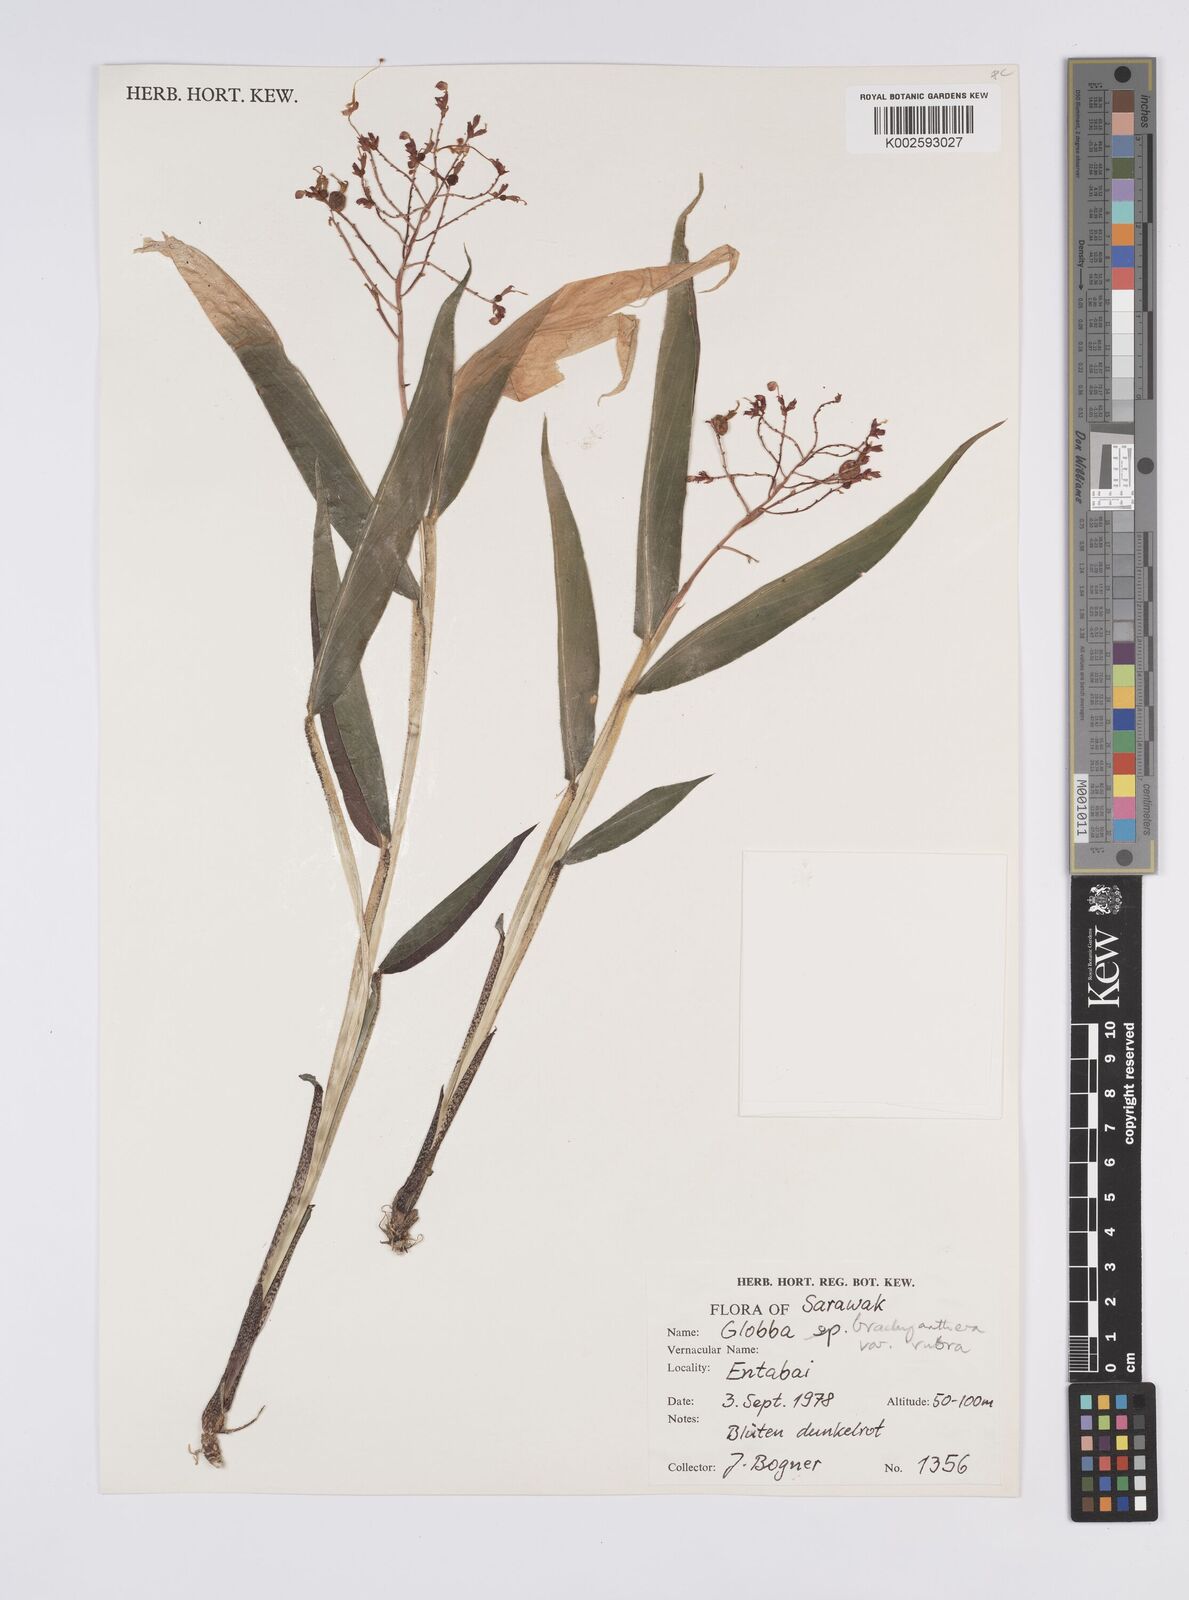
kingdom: Plantae
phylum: Tracheophyta
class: Liliopsida
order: Zingiberales
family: Zingiberaceae
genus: Globba
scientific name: Globba brachyanthera
